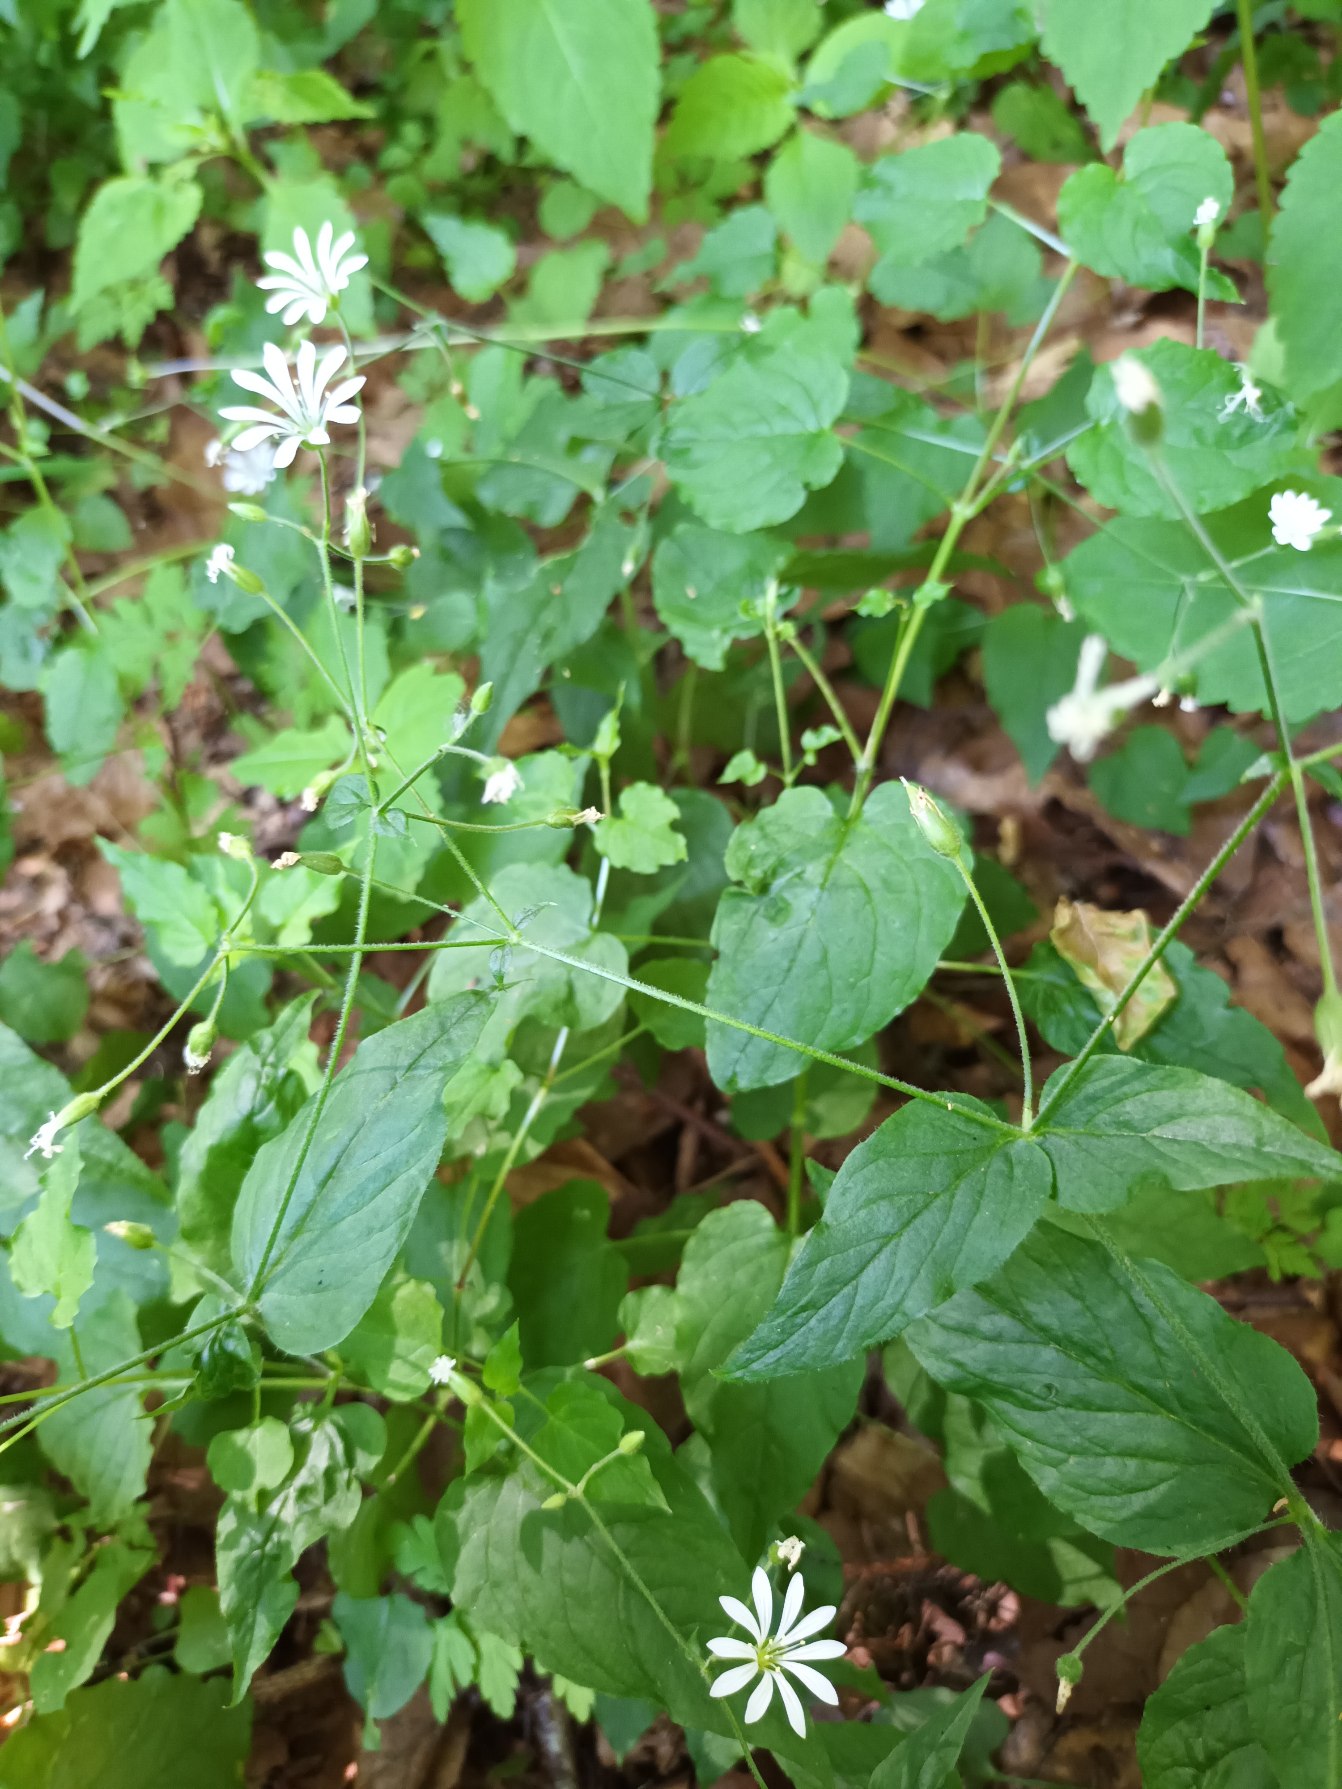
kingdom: Plantae
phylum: Tracheophyta
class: Magnoliopsida
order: Caryophyllales
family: Caryophyllaceae
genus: Stellaria
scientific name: Stellaria glochidisperma
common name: Sydlig lund-fladstjerne
